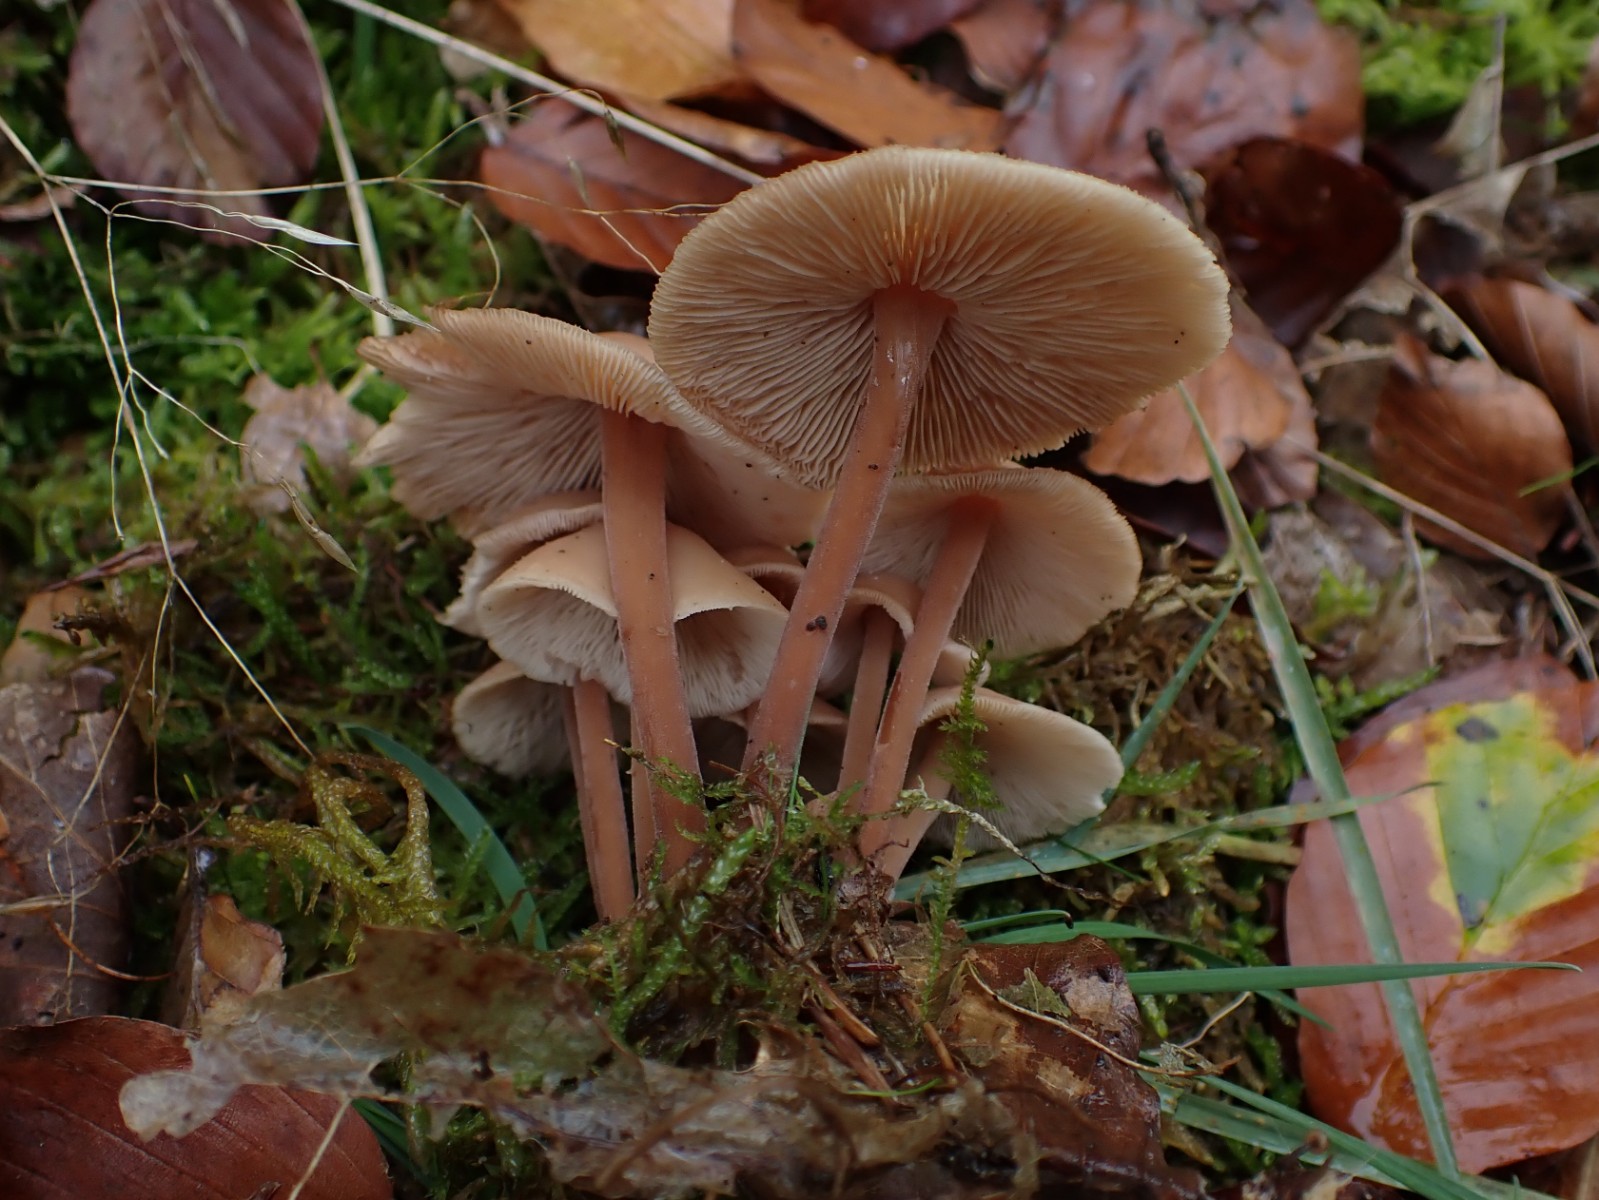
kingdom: Fungi
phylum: Basidiomycota
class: Agaricomycetes
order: Agaricales
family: Omphalotaceae
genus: Collybiopsis
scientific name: Collybiopsis confluens
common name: knippe-fladhat
